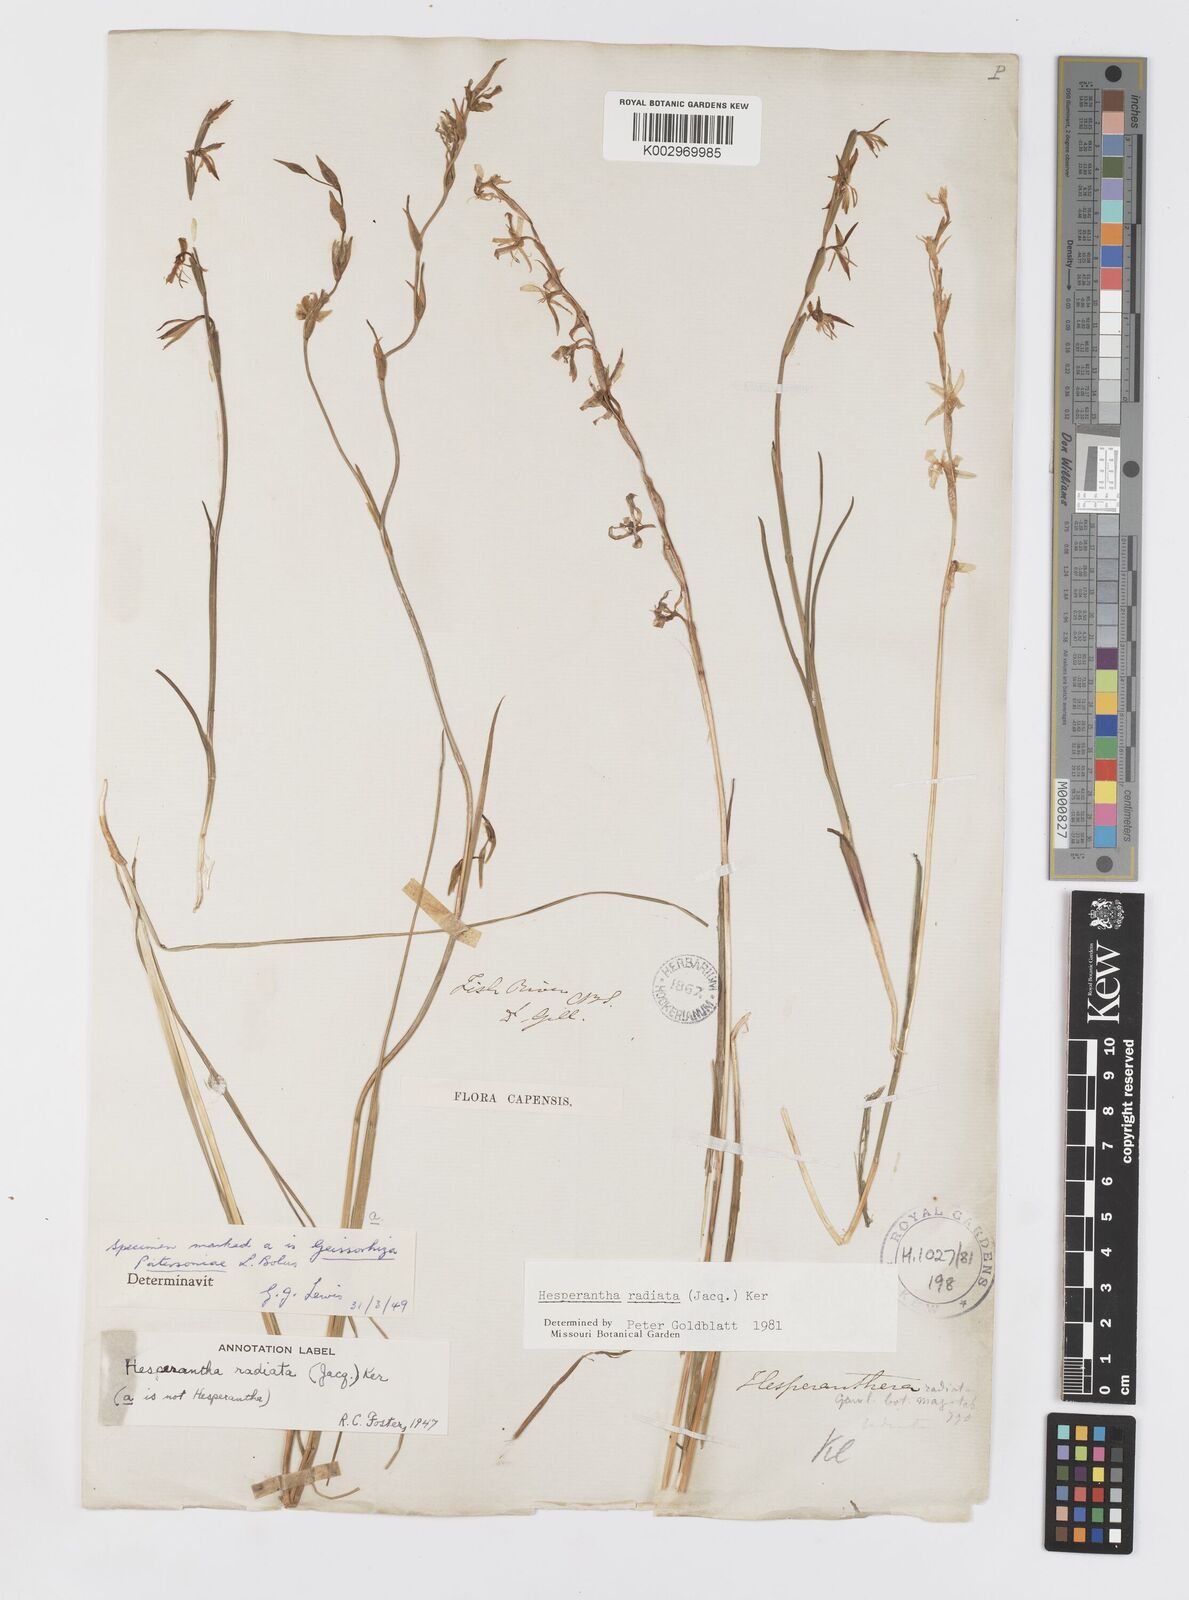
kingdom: Plantae
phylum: Tracheophyta
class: Liliopsida
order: Asparagales
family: Iridaceae
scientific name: Iridaceae
